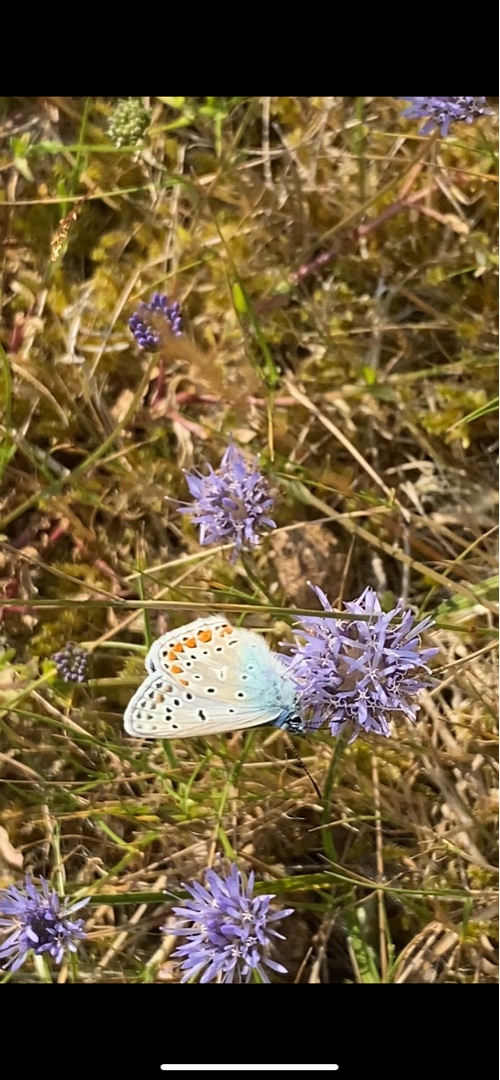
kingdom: Animalia
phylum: Arthropoda
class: Insecta
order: Lepidoptera
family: Lycaenidae
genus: Polyommatus
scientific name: Polyommatus icarus
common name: Almindelig blåfugl
